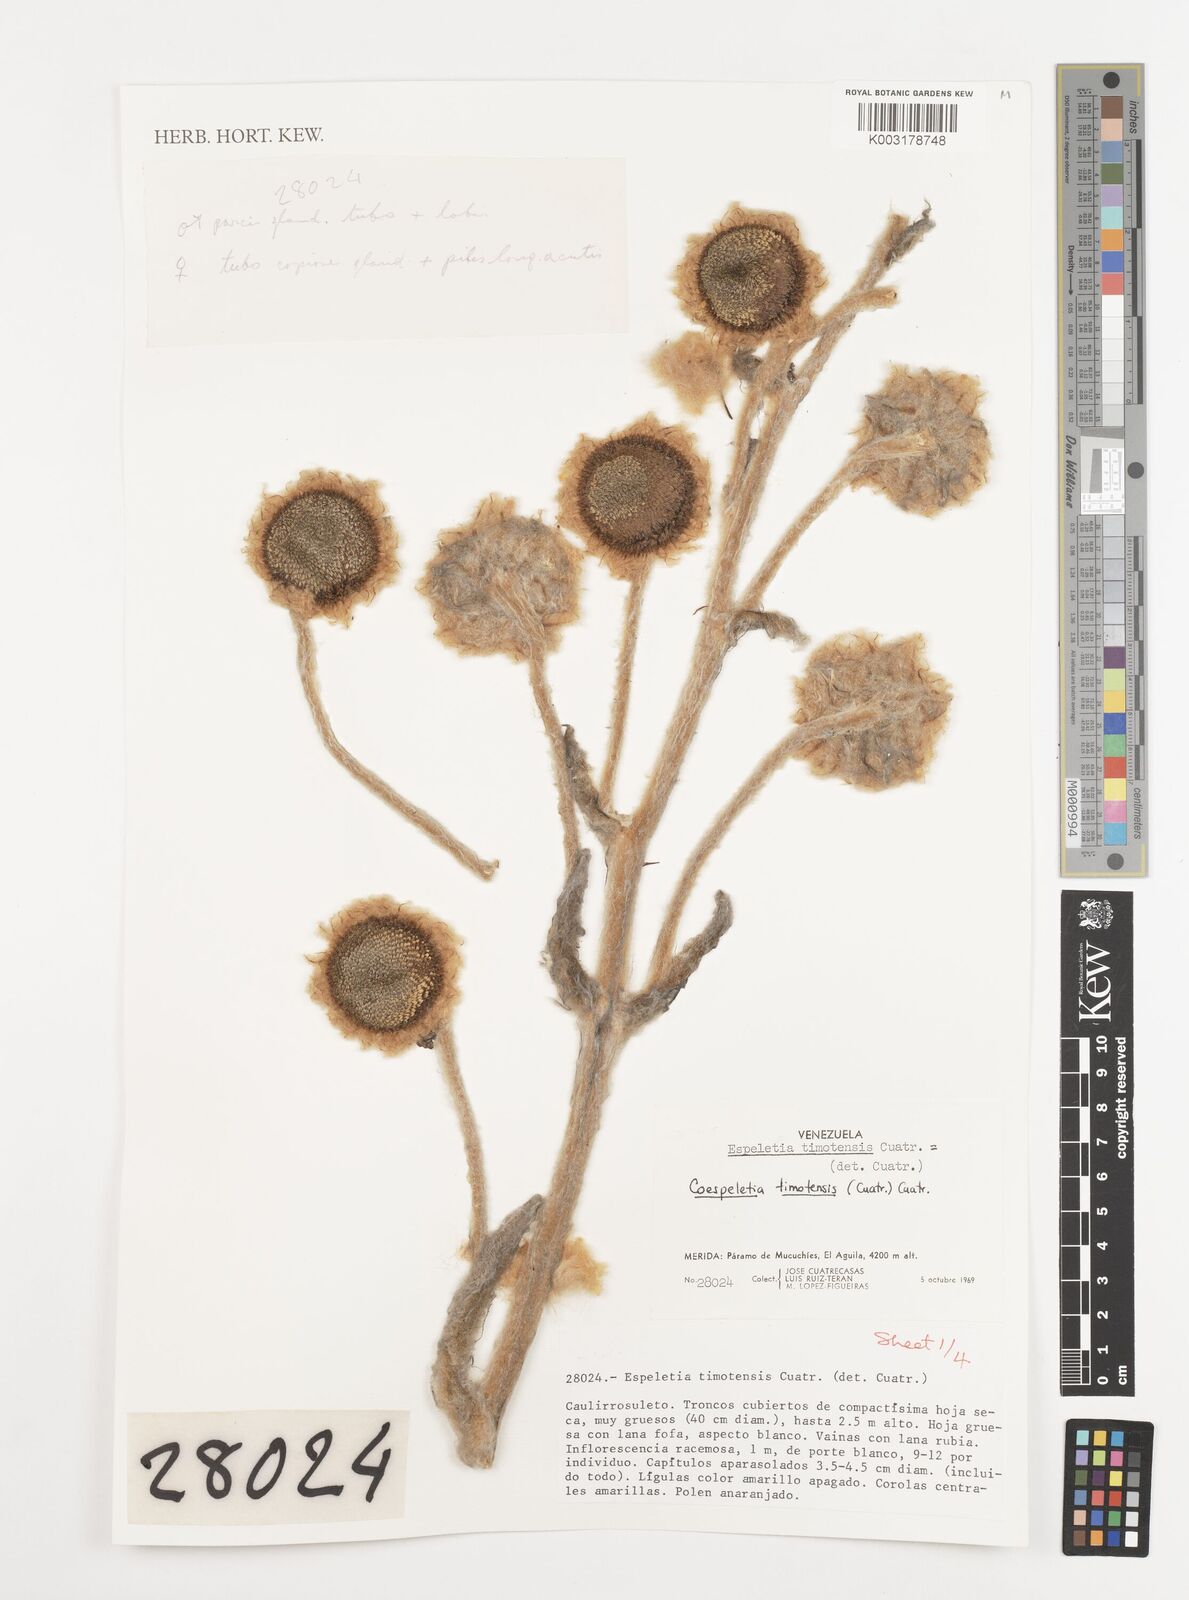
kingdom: Plantae
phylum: Tracheophyta
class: Magnoliopsida
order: Asterales
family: Asteraceae
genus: Espeletia
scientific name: Espeletia timotensis
